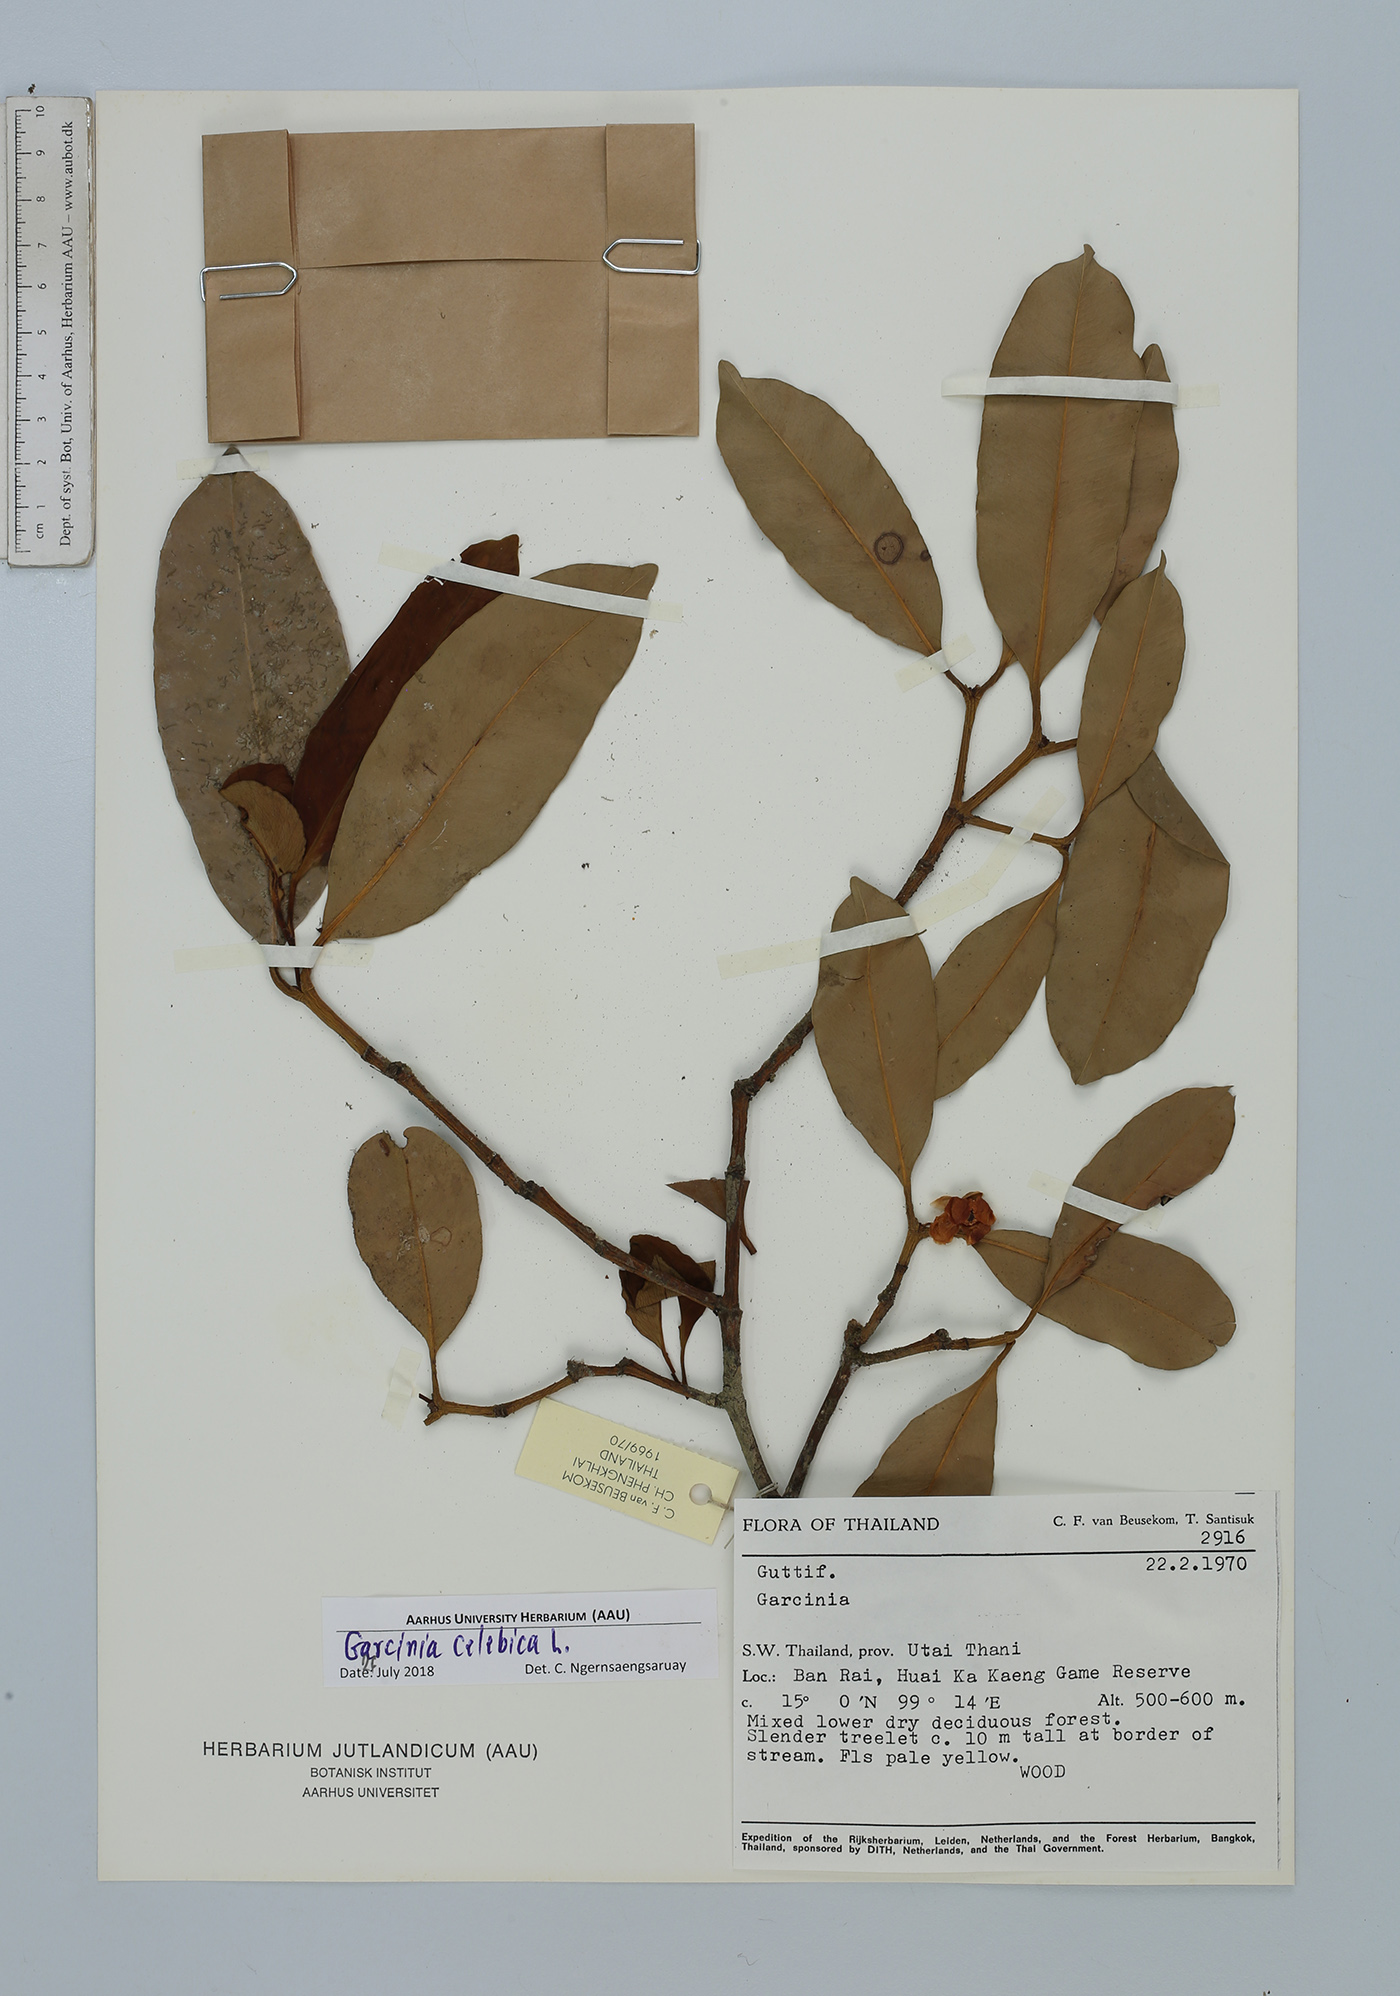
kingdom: Plantae
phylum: Tracheophyta
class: Magnoliopsida
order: Malpighiales
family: Clusiaceae
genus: Garcinia
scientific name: Garcinia celebica
